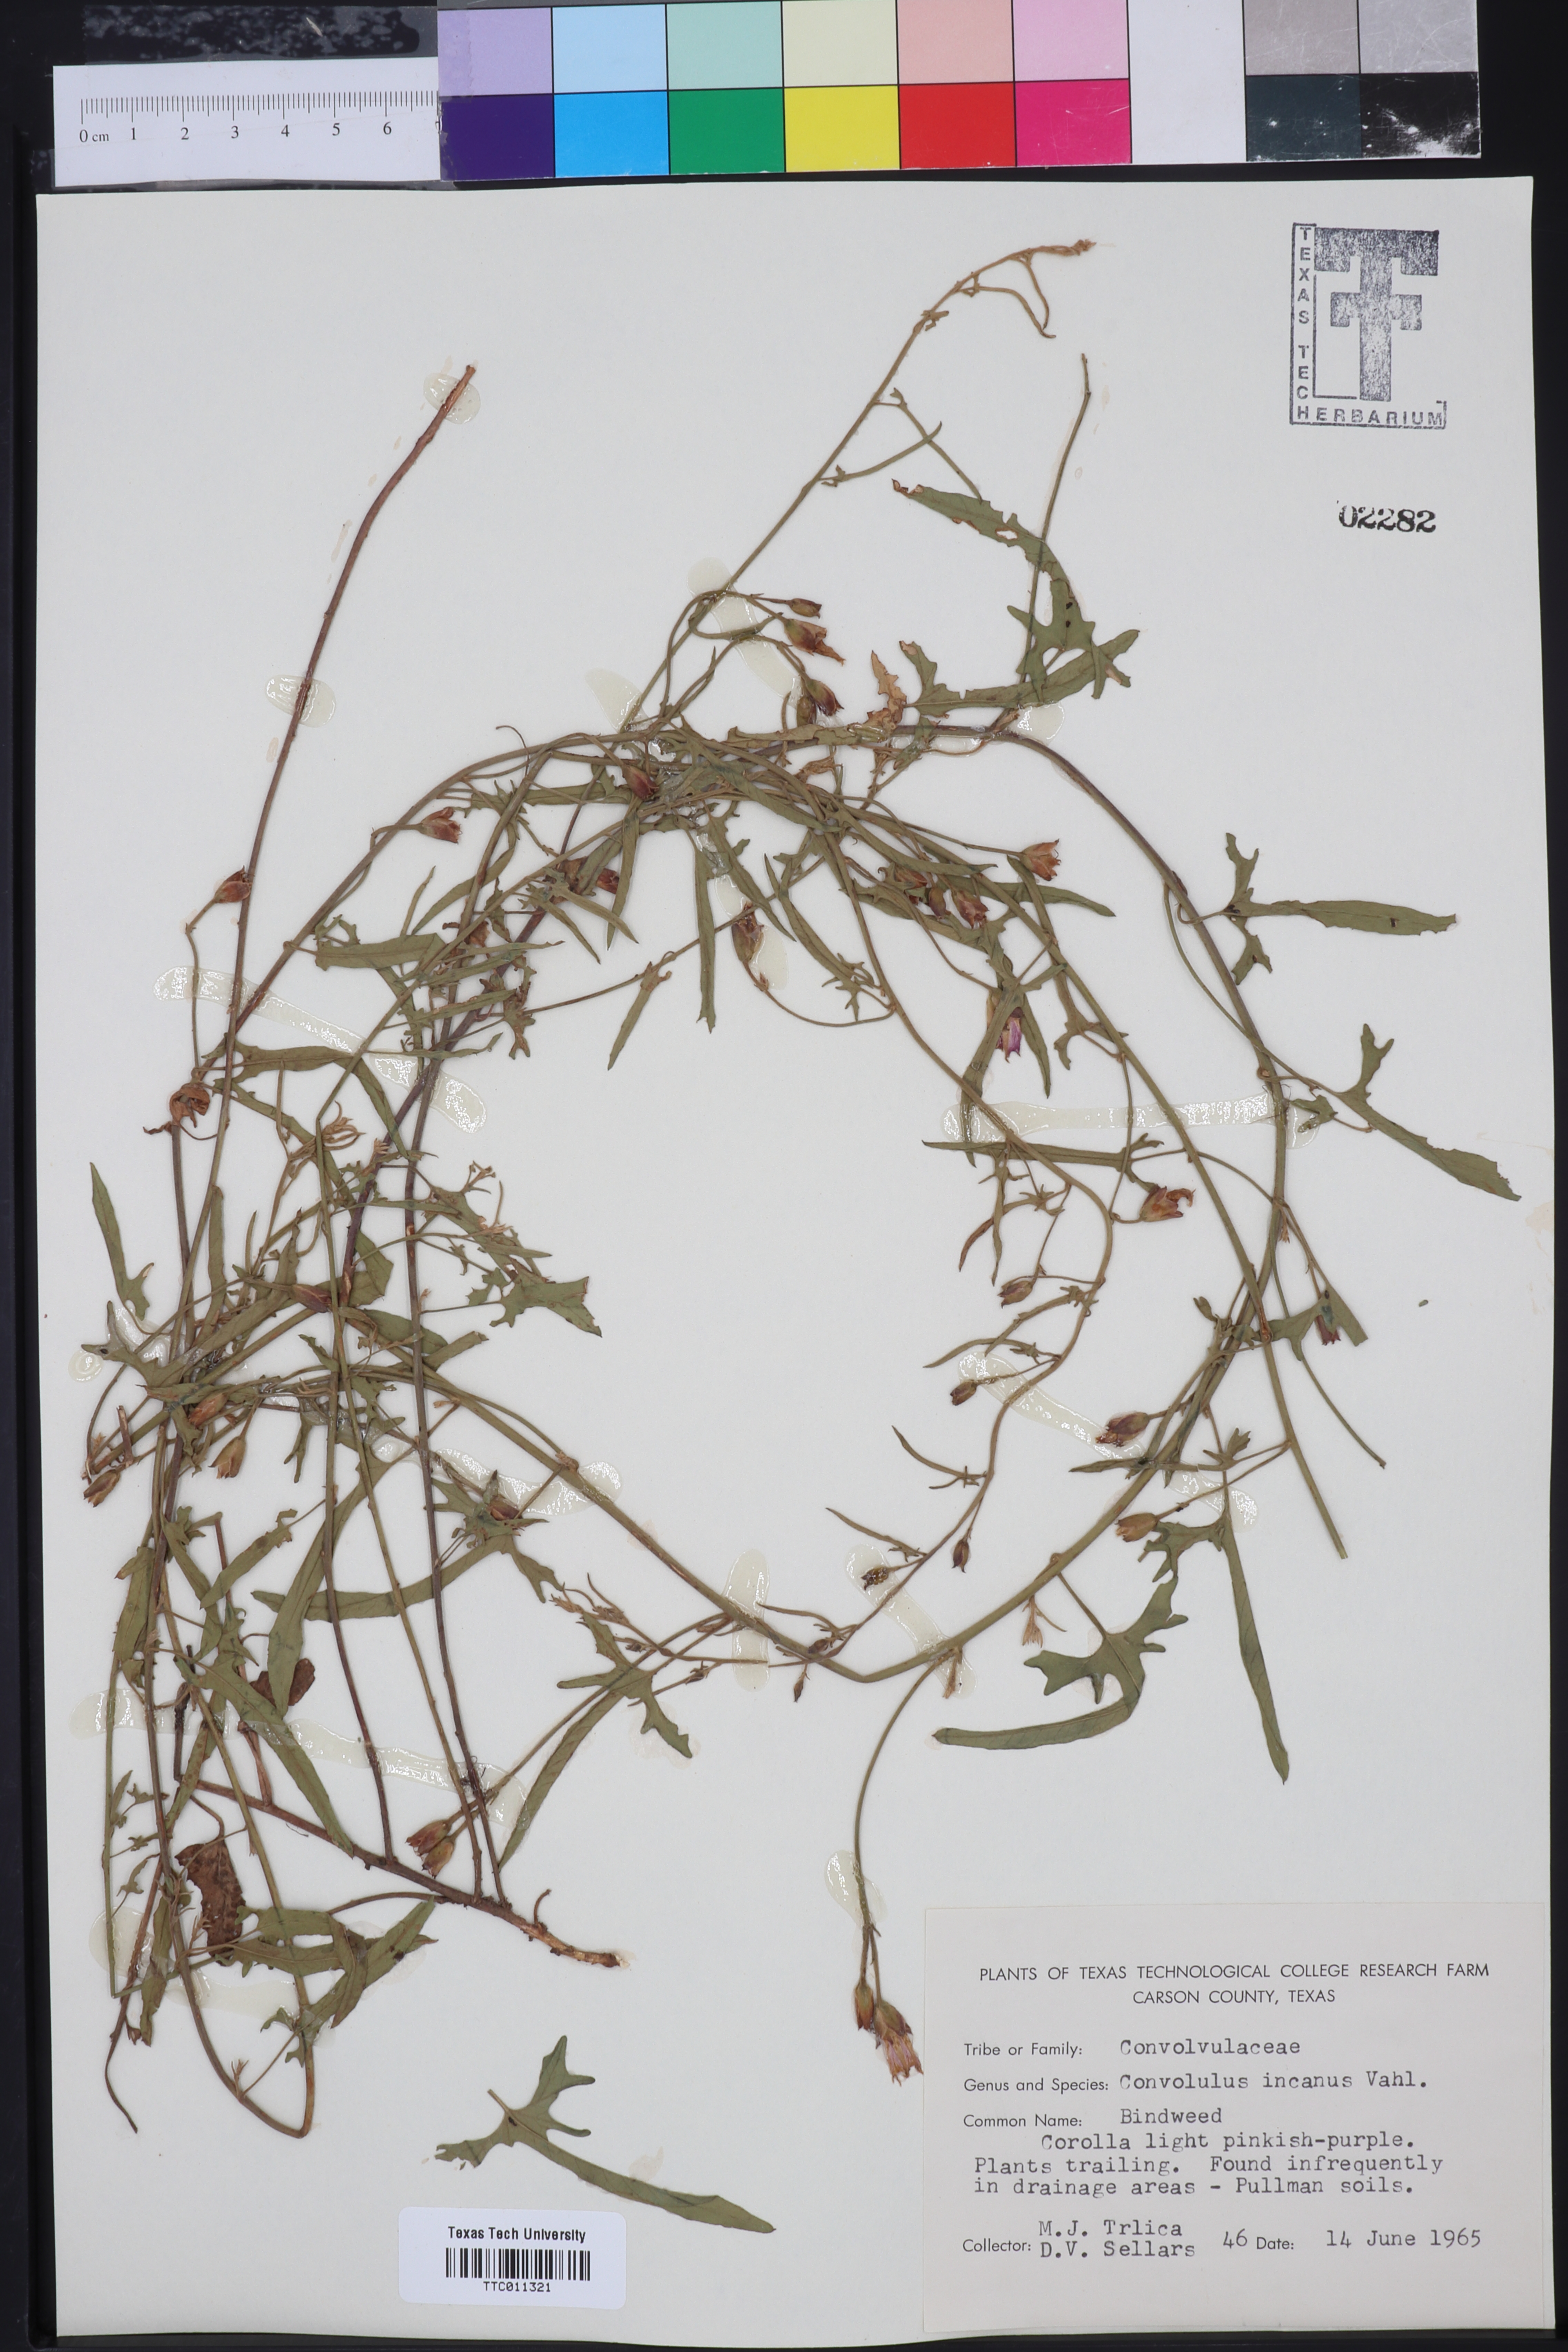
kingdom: Plantae
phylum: Tracheophyta
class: Magnoliopsida
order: Solanales
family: Convolvulaceae
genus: Convolvulus
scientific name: Convolvulus hermanniae
